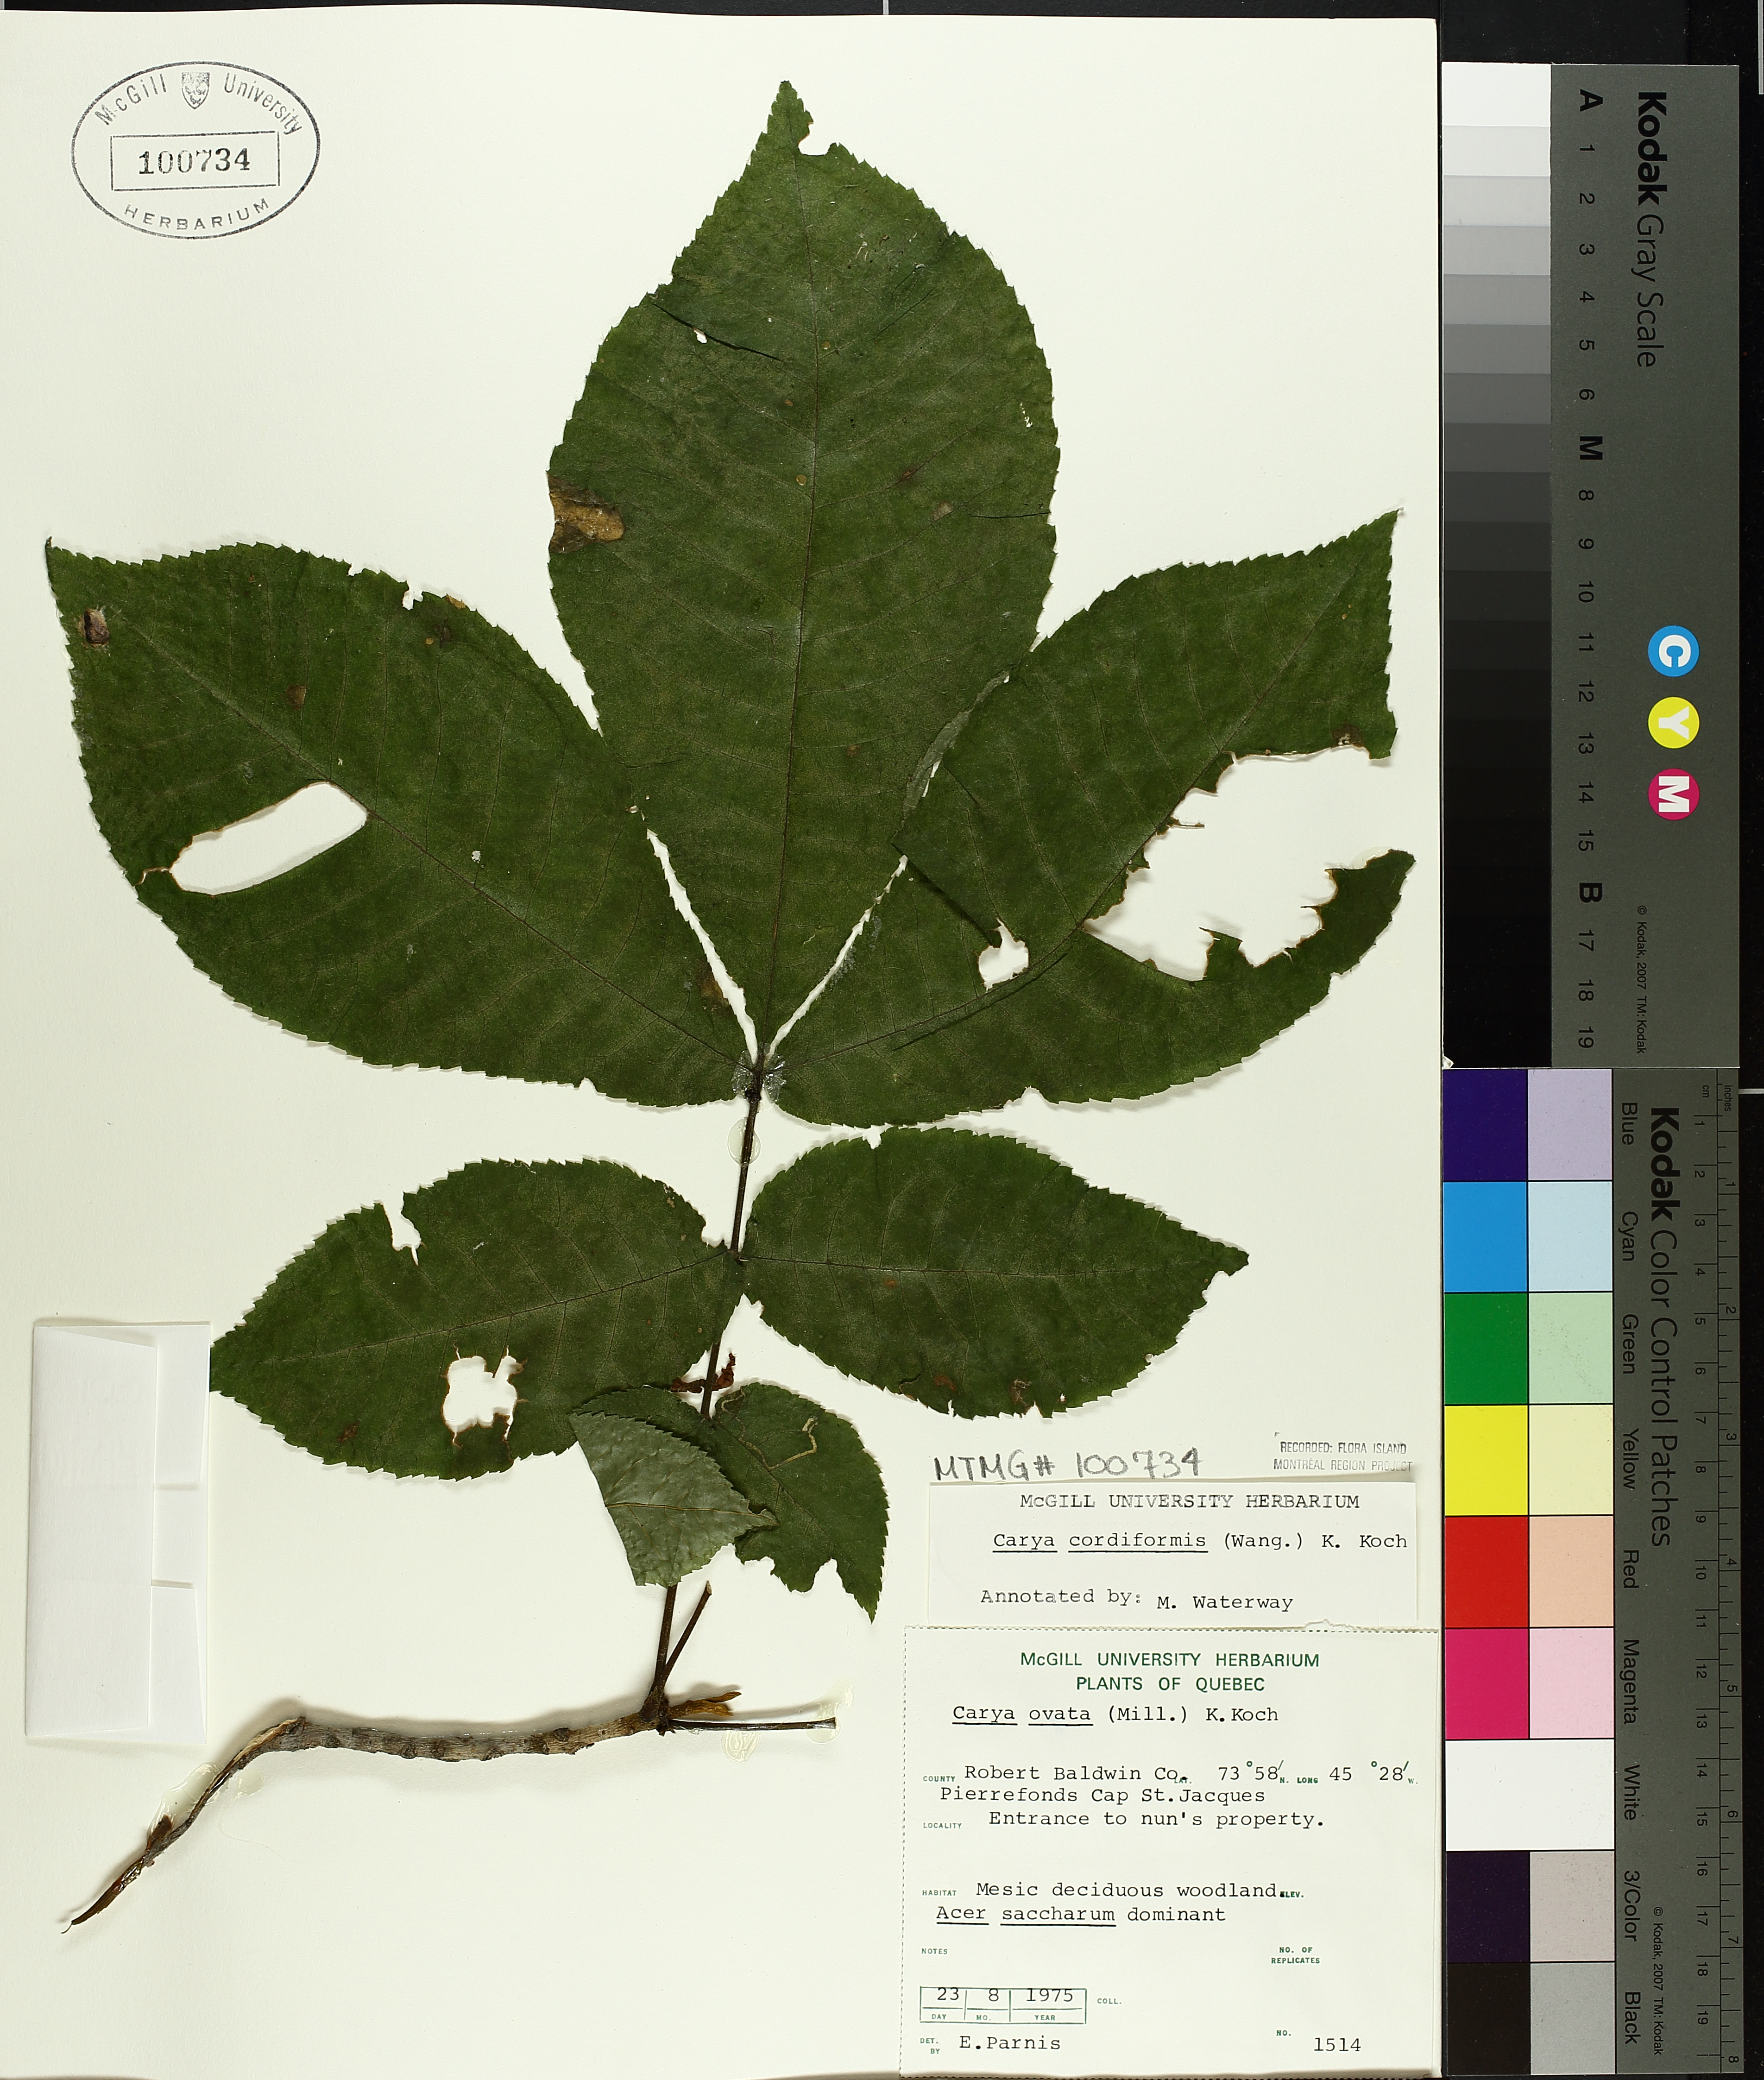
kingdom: Plantae
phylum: Tracheophyta
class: Magnoliopsida
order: Fagales
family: Juglandaceae
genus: Carya
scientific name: Carya cordiformis
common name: Bitternut hickory
